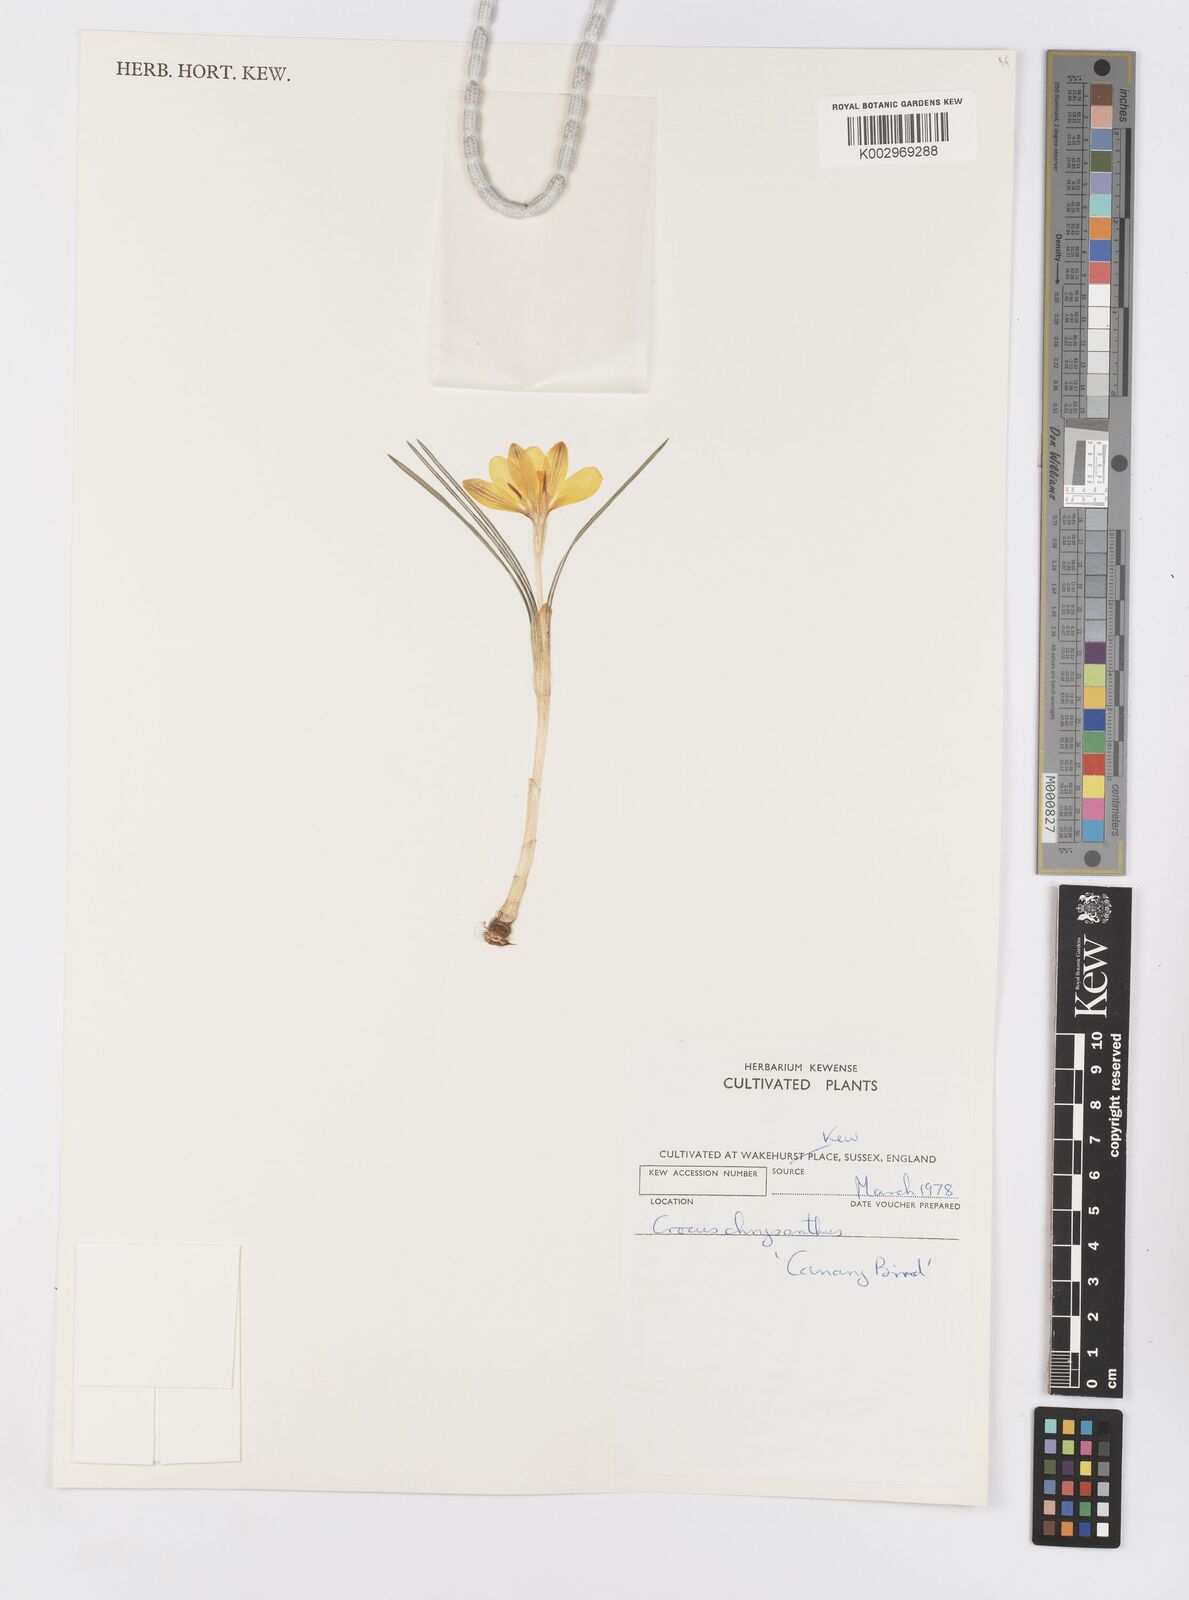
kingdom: Plantae
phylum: Tracheophyta
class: Liliopsida
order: Asparagales
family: Iridaceae
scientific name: Iridaceae
